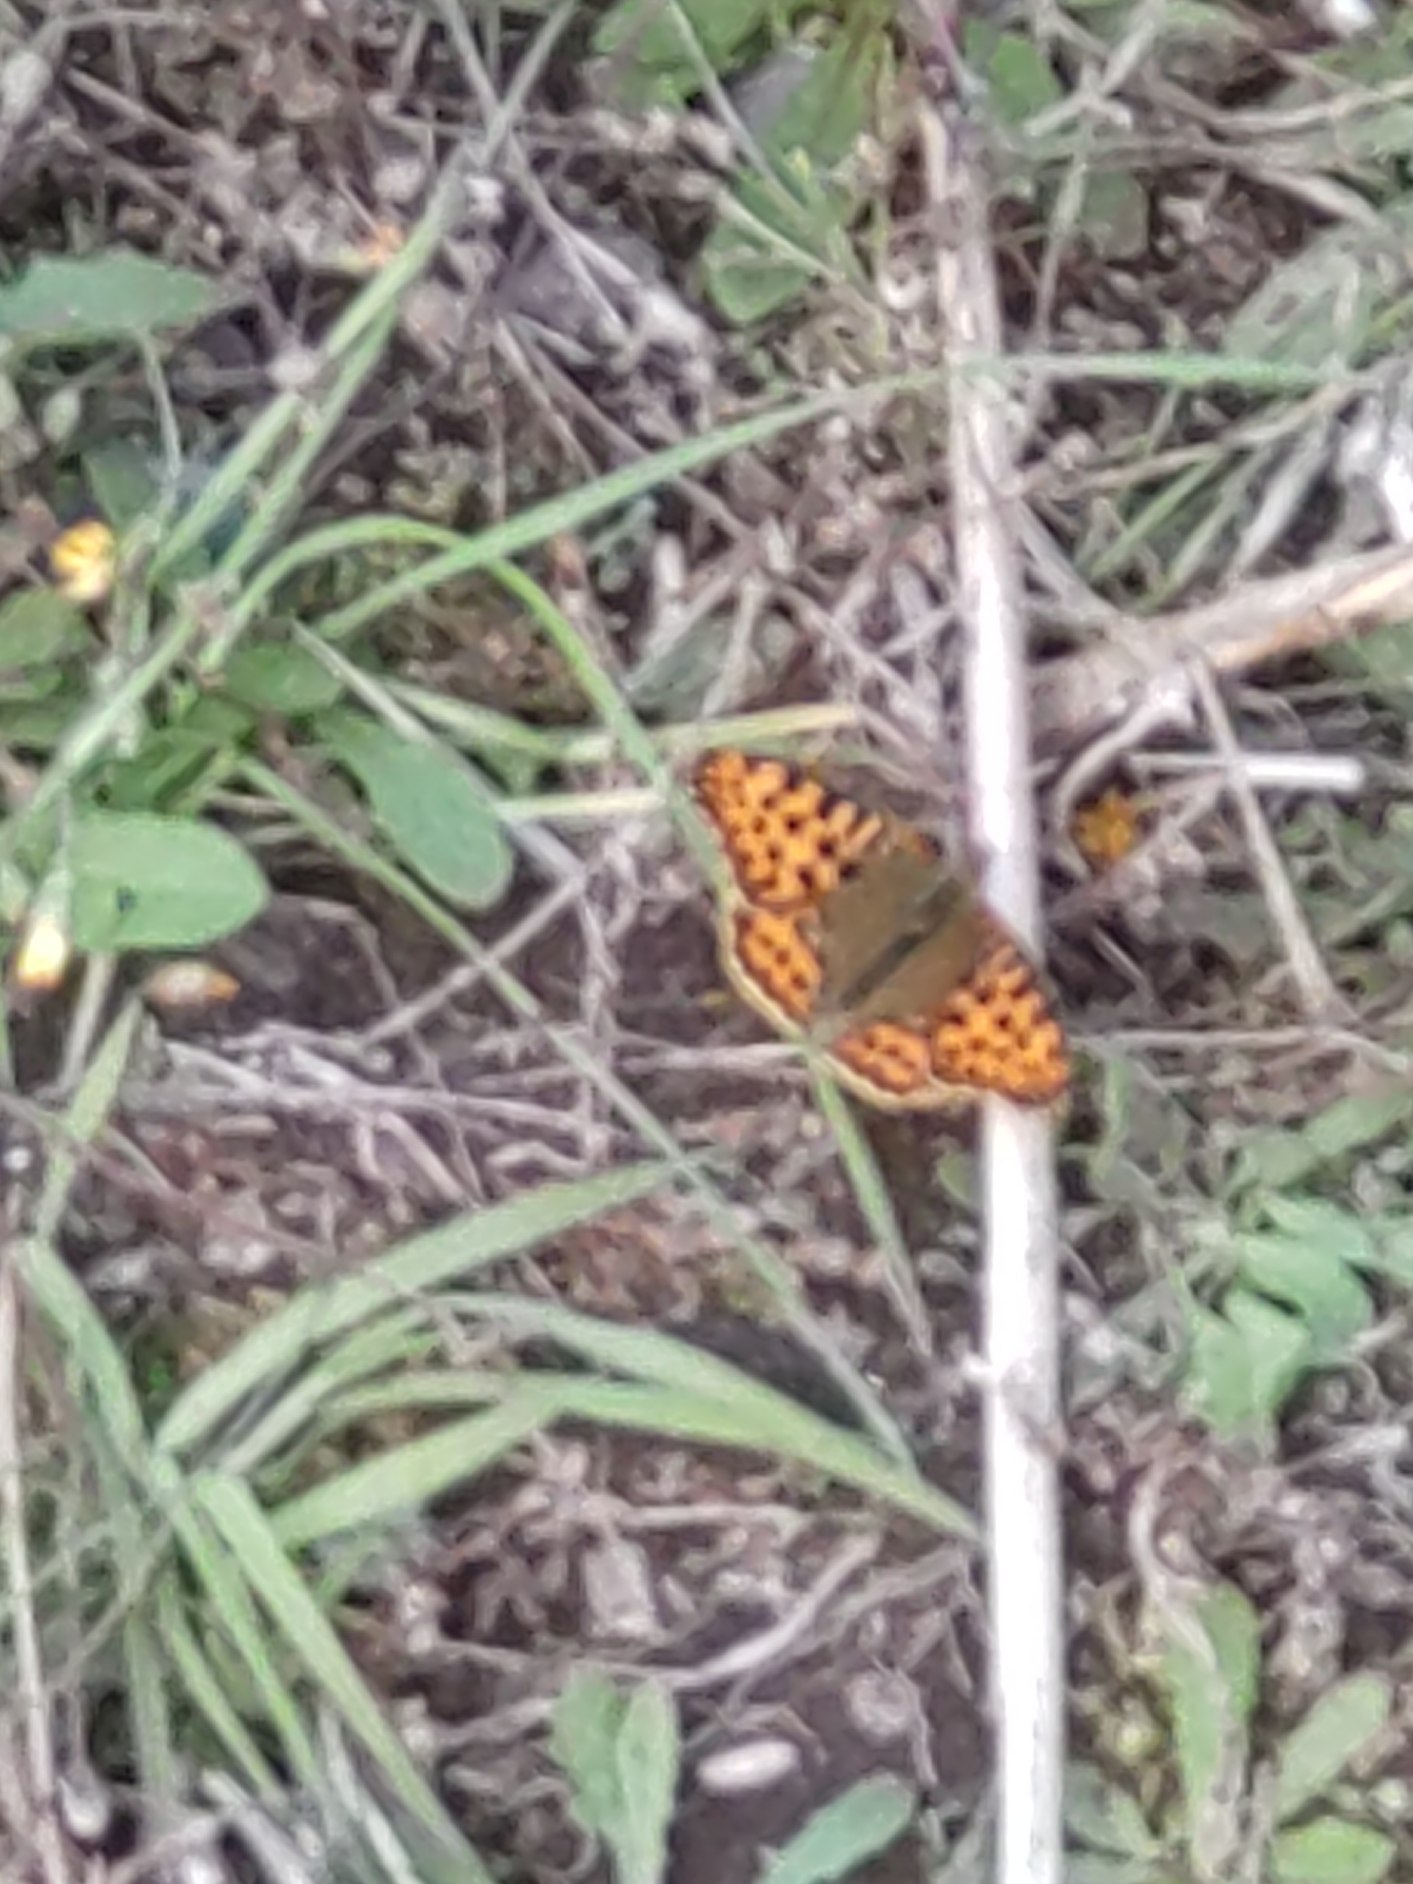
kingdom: Animalia
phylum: Arthropoda
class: Insecta
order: Lepidoptera
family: Nymphalidae
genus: Issoria
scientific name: Issoria lathonia
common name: Storplettet perlemorsommerfugl
